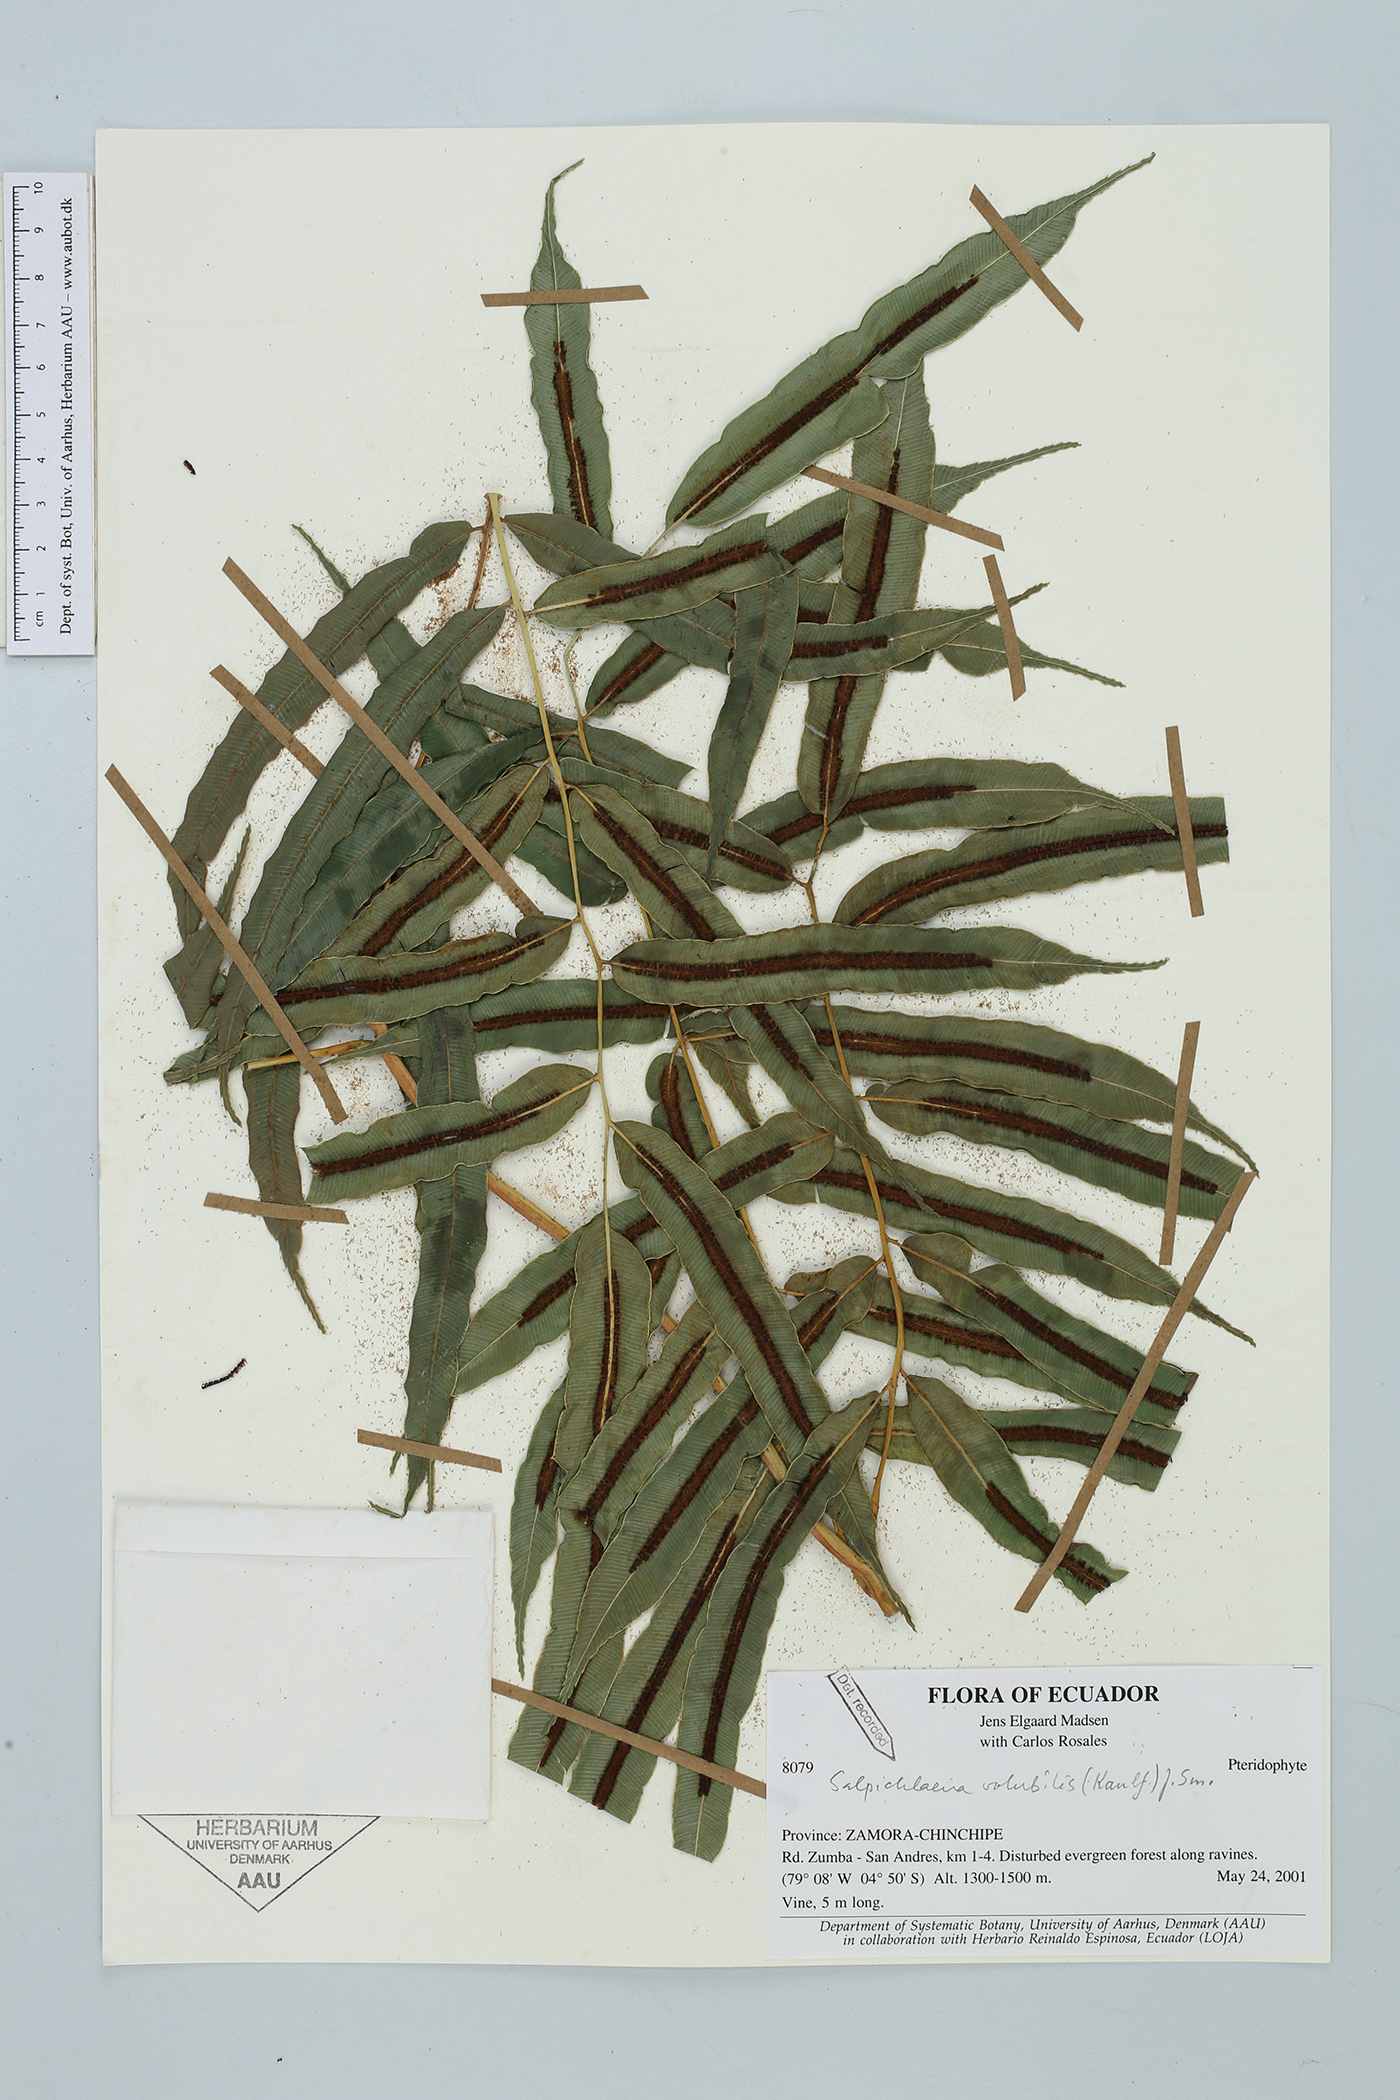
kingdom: Plantae
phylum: Tracheophyta
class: Polypodiopsida
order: Polypodiales
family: Blechnaceae
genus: Salpichlaena
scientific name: Salpichlaena papyrus
